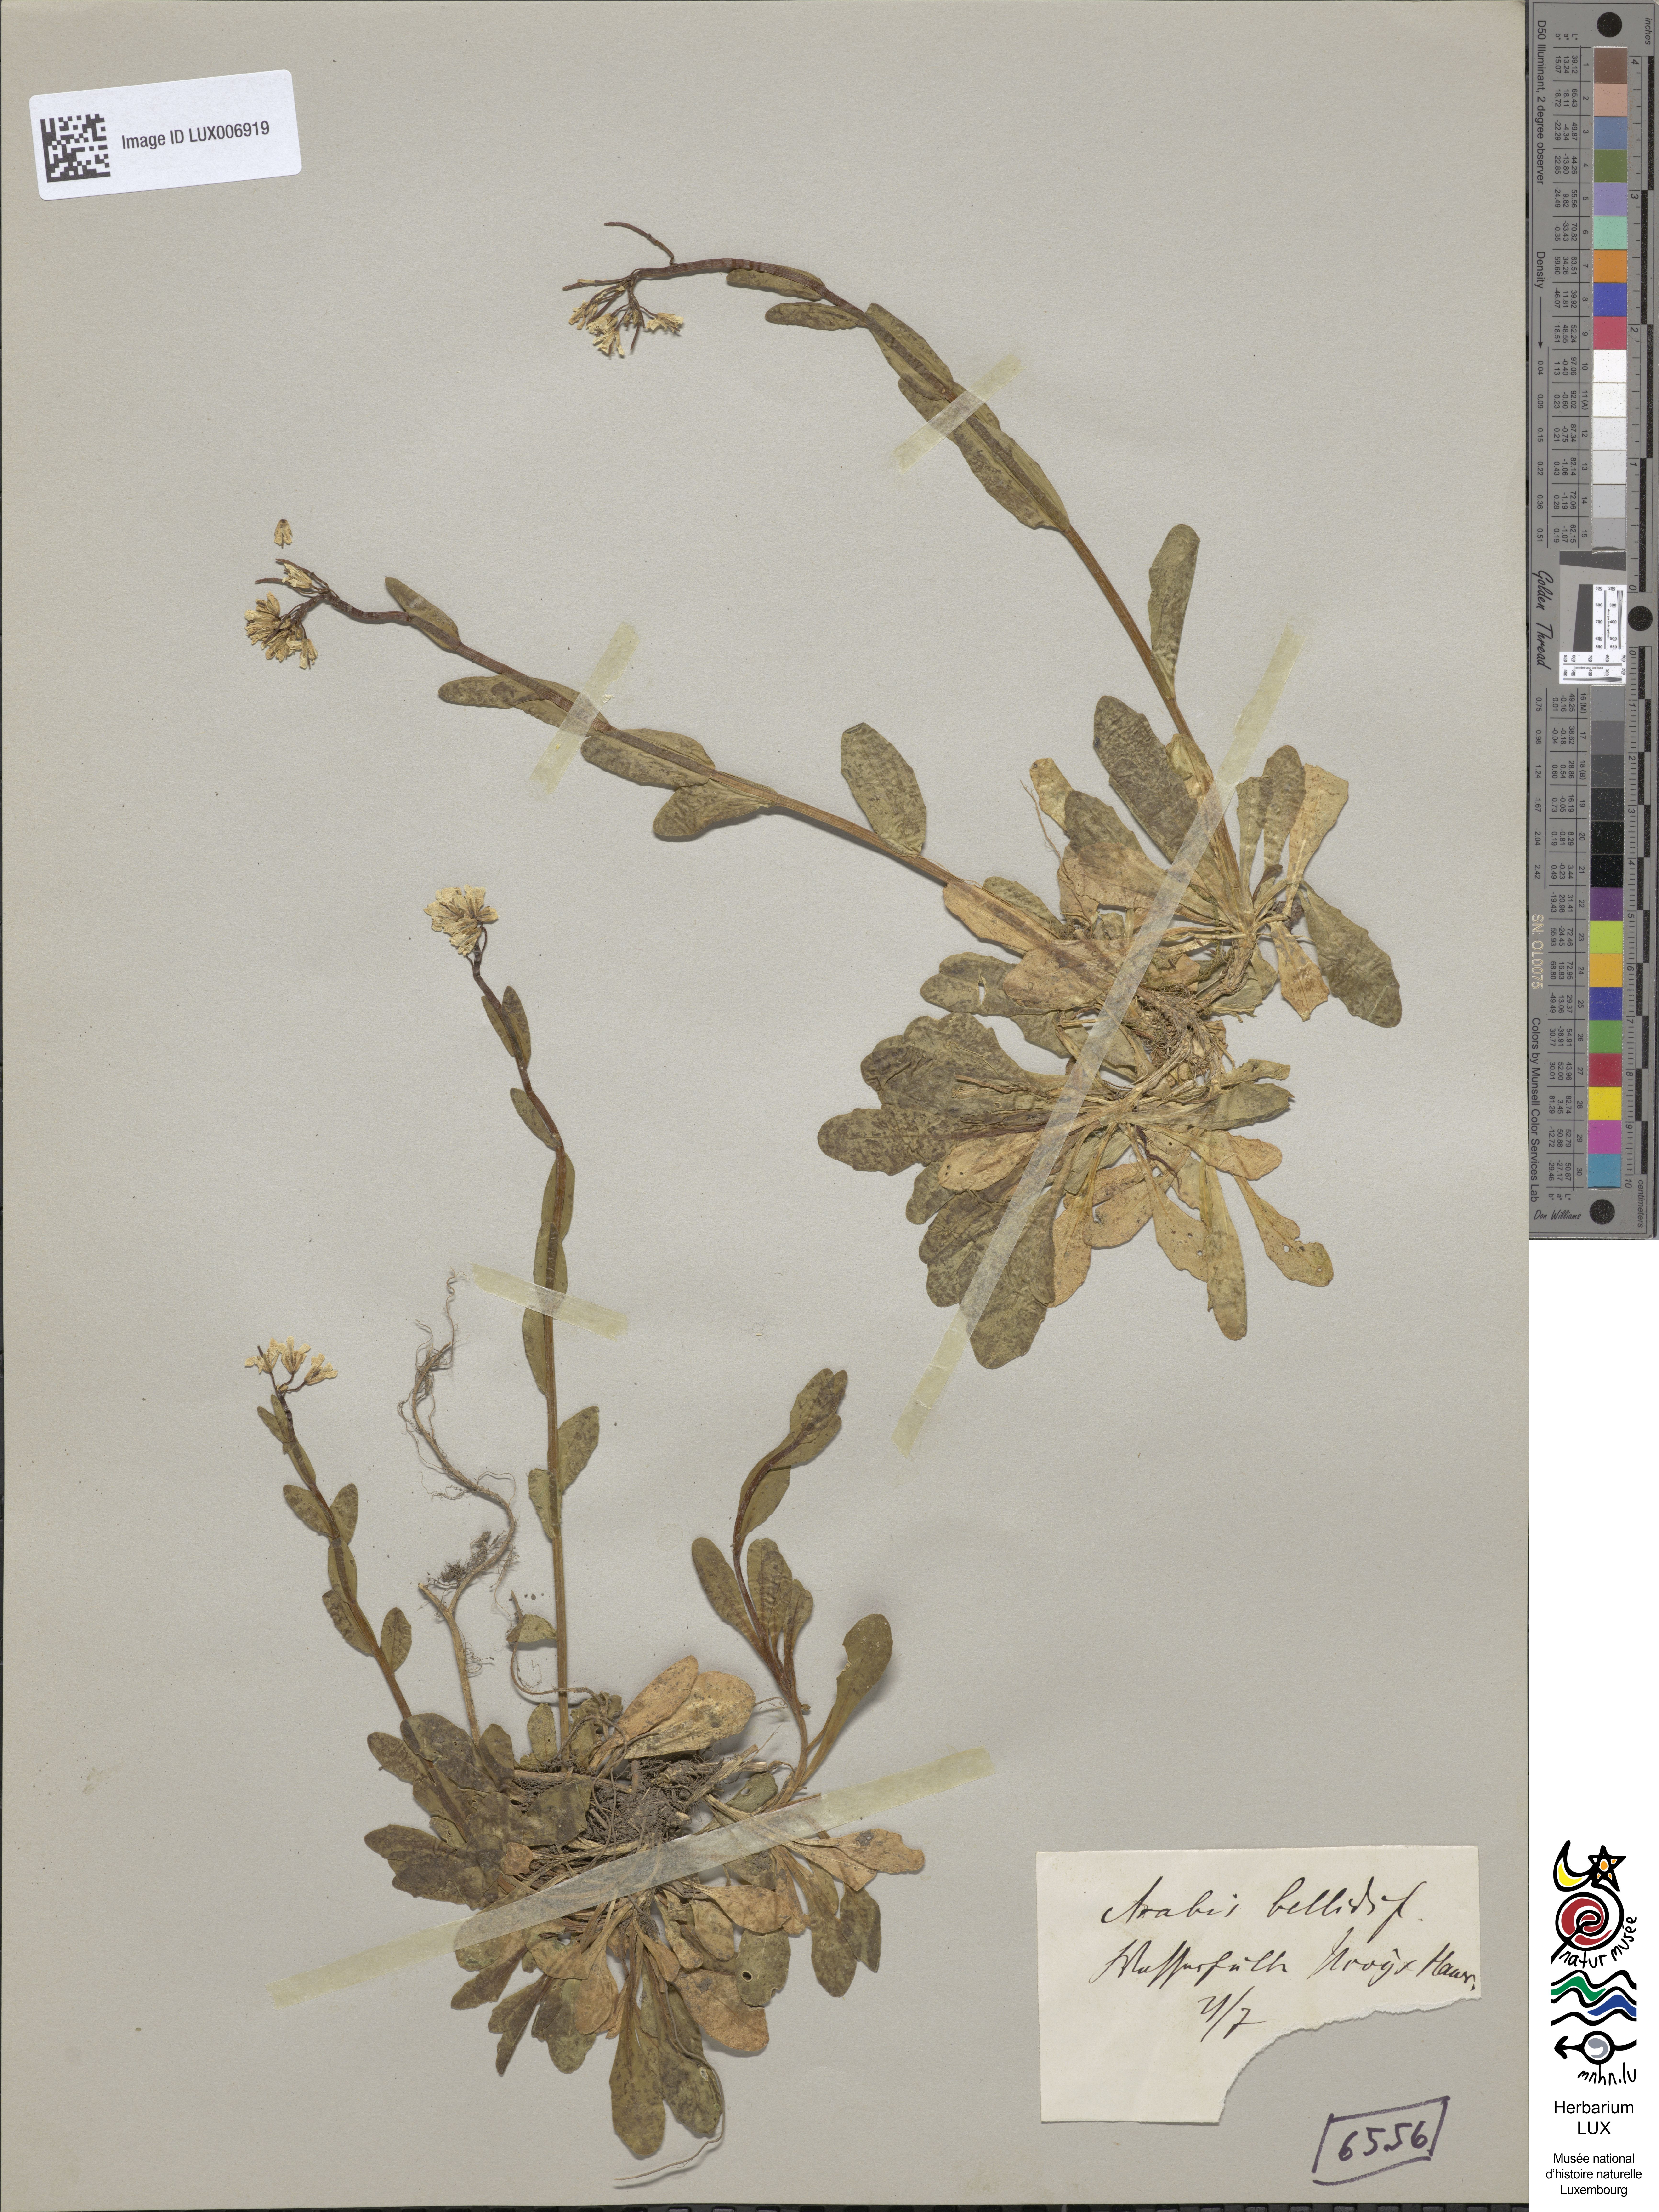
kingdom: Plantae
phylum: Tracheophyta
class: Magnoliopsida
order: Brassicales
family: Brassicaceae
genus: Arabis
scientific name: Arabis soyeri
